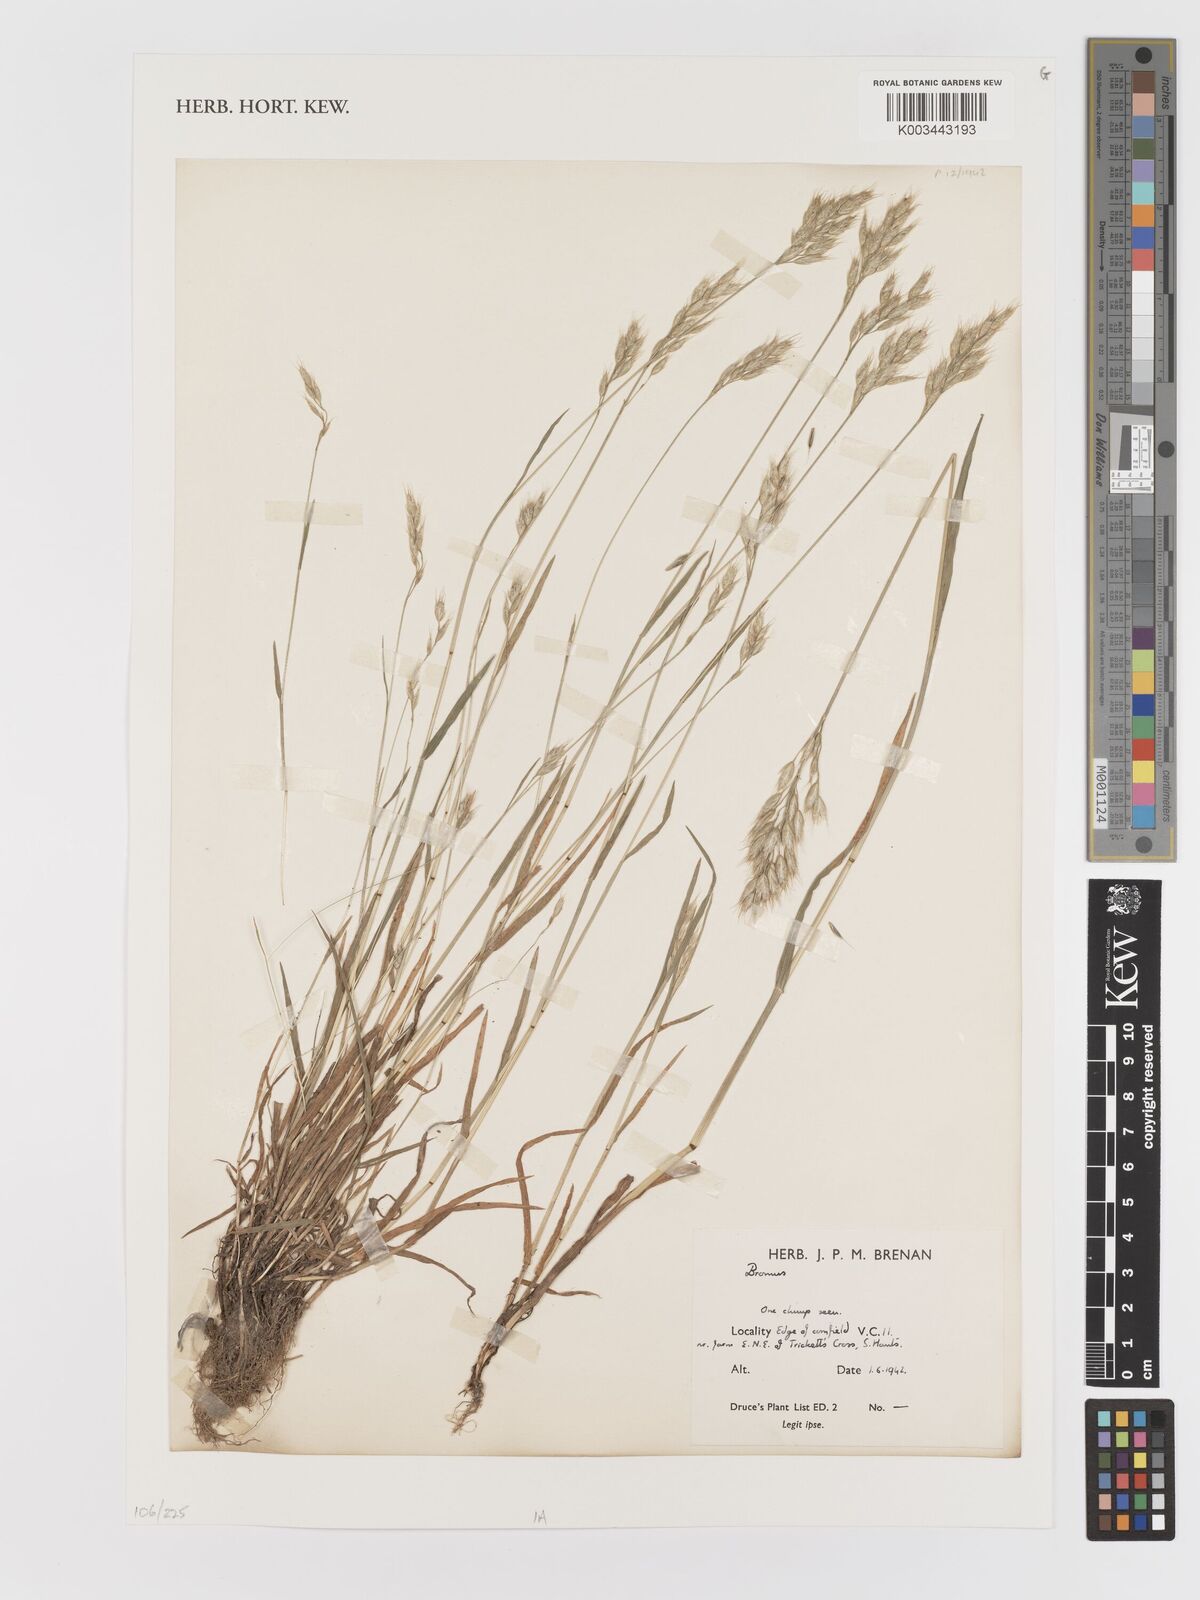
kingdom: Plantae
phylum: Tracheophyta
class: Liliopsida
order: Poales
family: Poaceae
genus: Bromus
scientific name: Bromus
